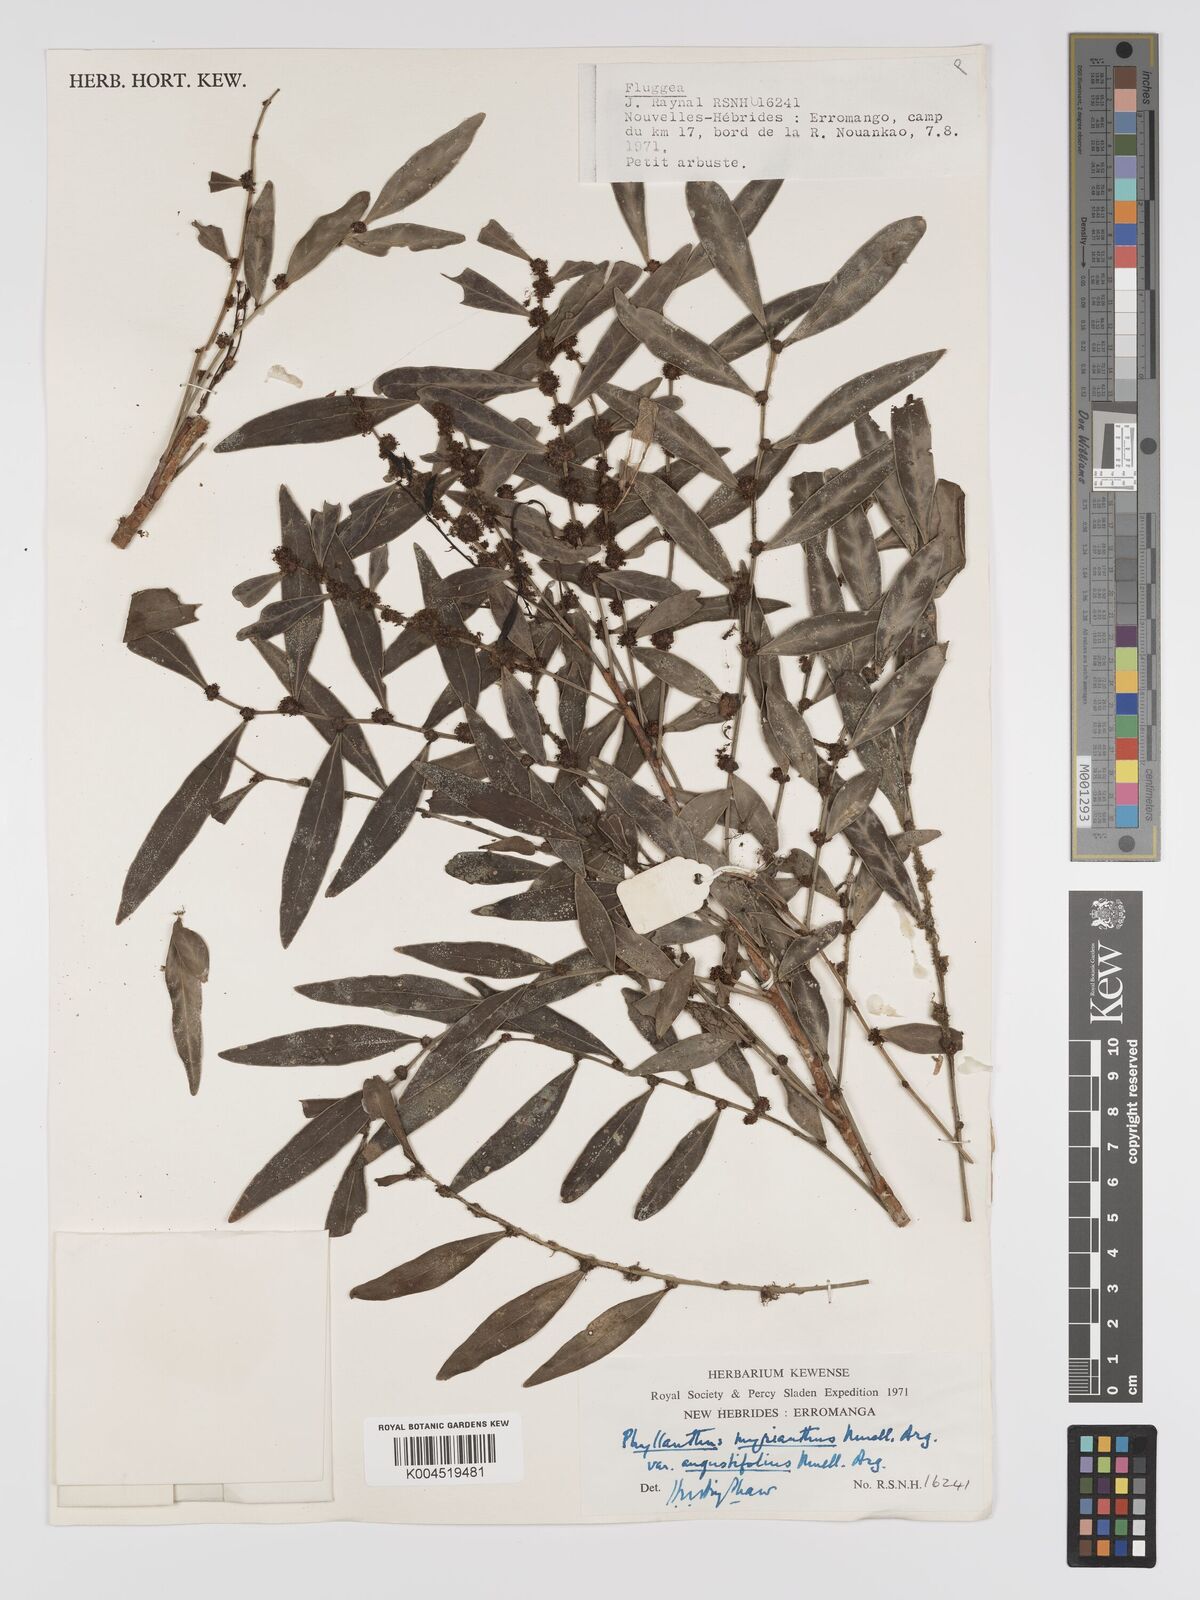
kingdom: Plantae
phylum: Tracheophyta
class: Magnoliopsida
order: Malpighiales
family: Phyllanthaceae
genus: Glochidion
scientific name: Glochidion myrianthum
